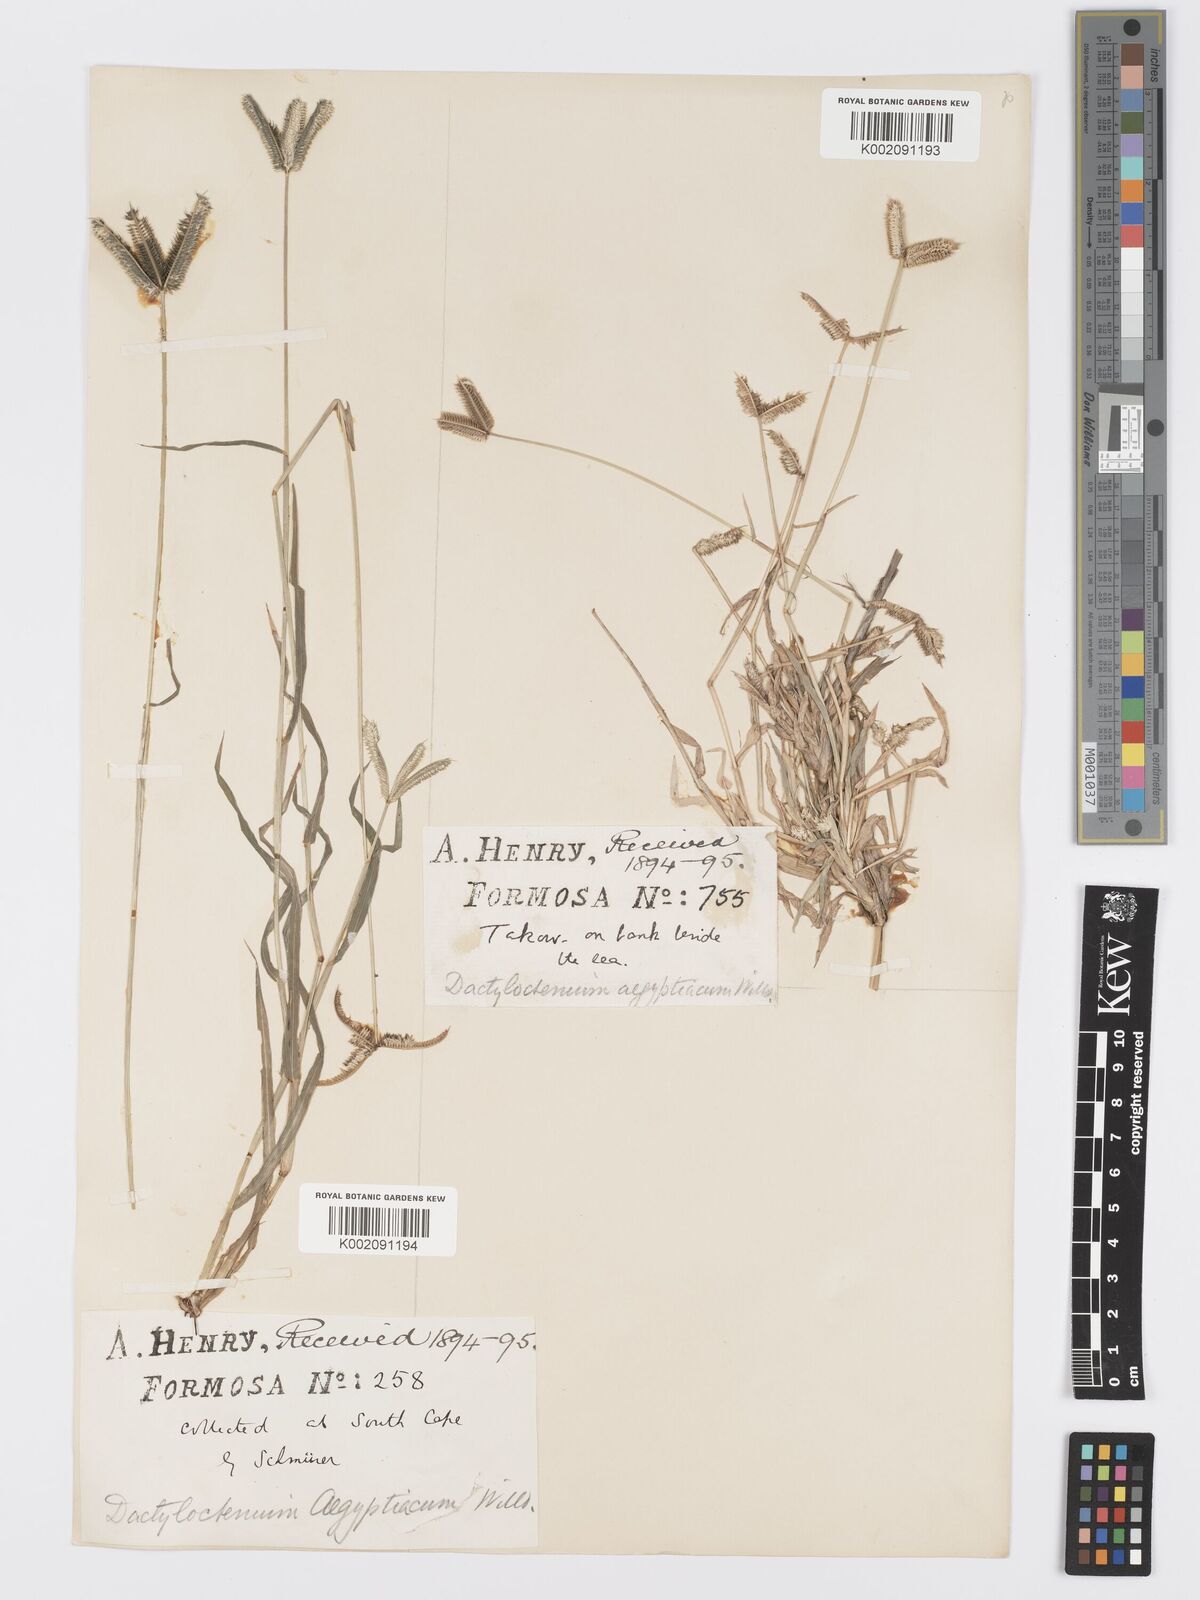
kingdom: Plantae
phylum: Tracheophyta
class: Liliopsida
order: Poales
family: Poaceae
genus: Dactyloctenium
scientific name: Dactyloctenium aegyptium
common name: Egyptian grass
